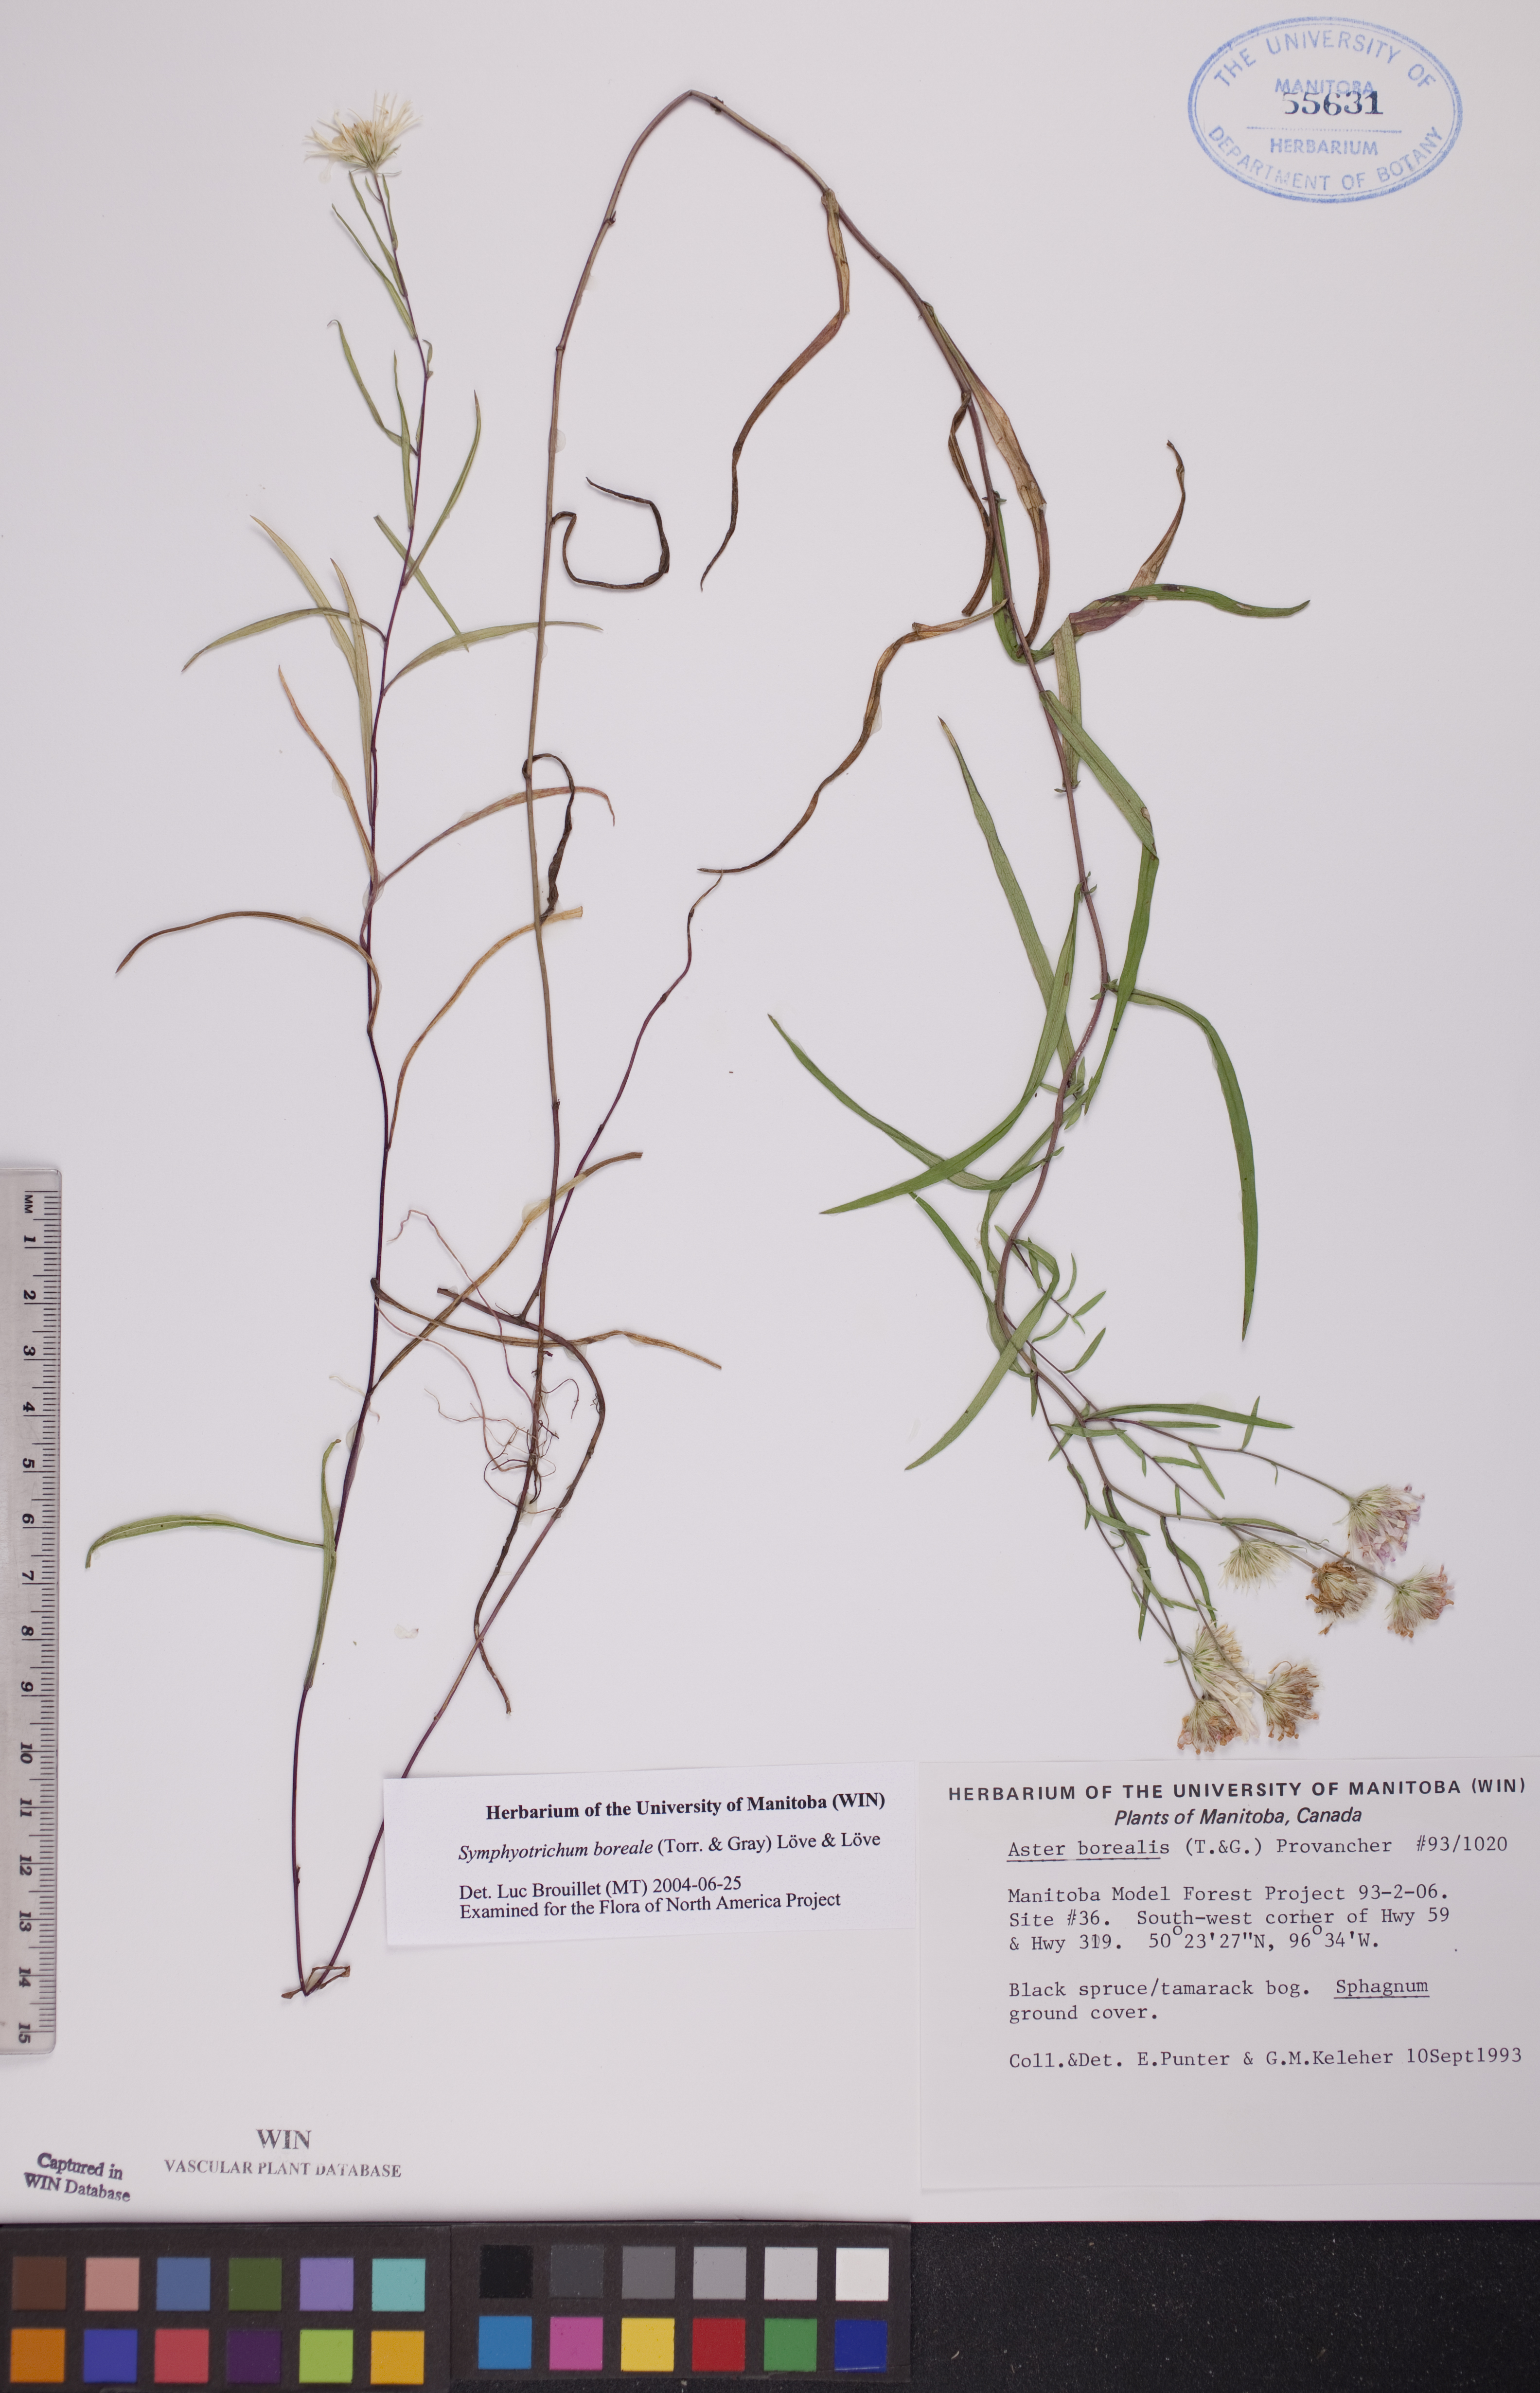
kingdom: Plantae
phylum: Tracheophyta
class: Magnoliopsida
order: Asterales
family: Asteraceae
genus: Symphyotrichum
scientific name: Symphyotrichum boreale
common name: Northern bog aster
